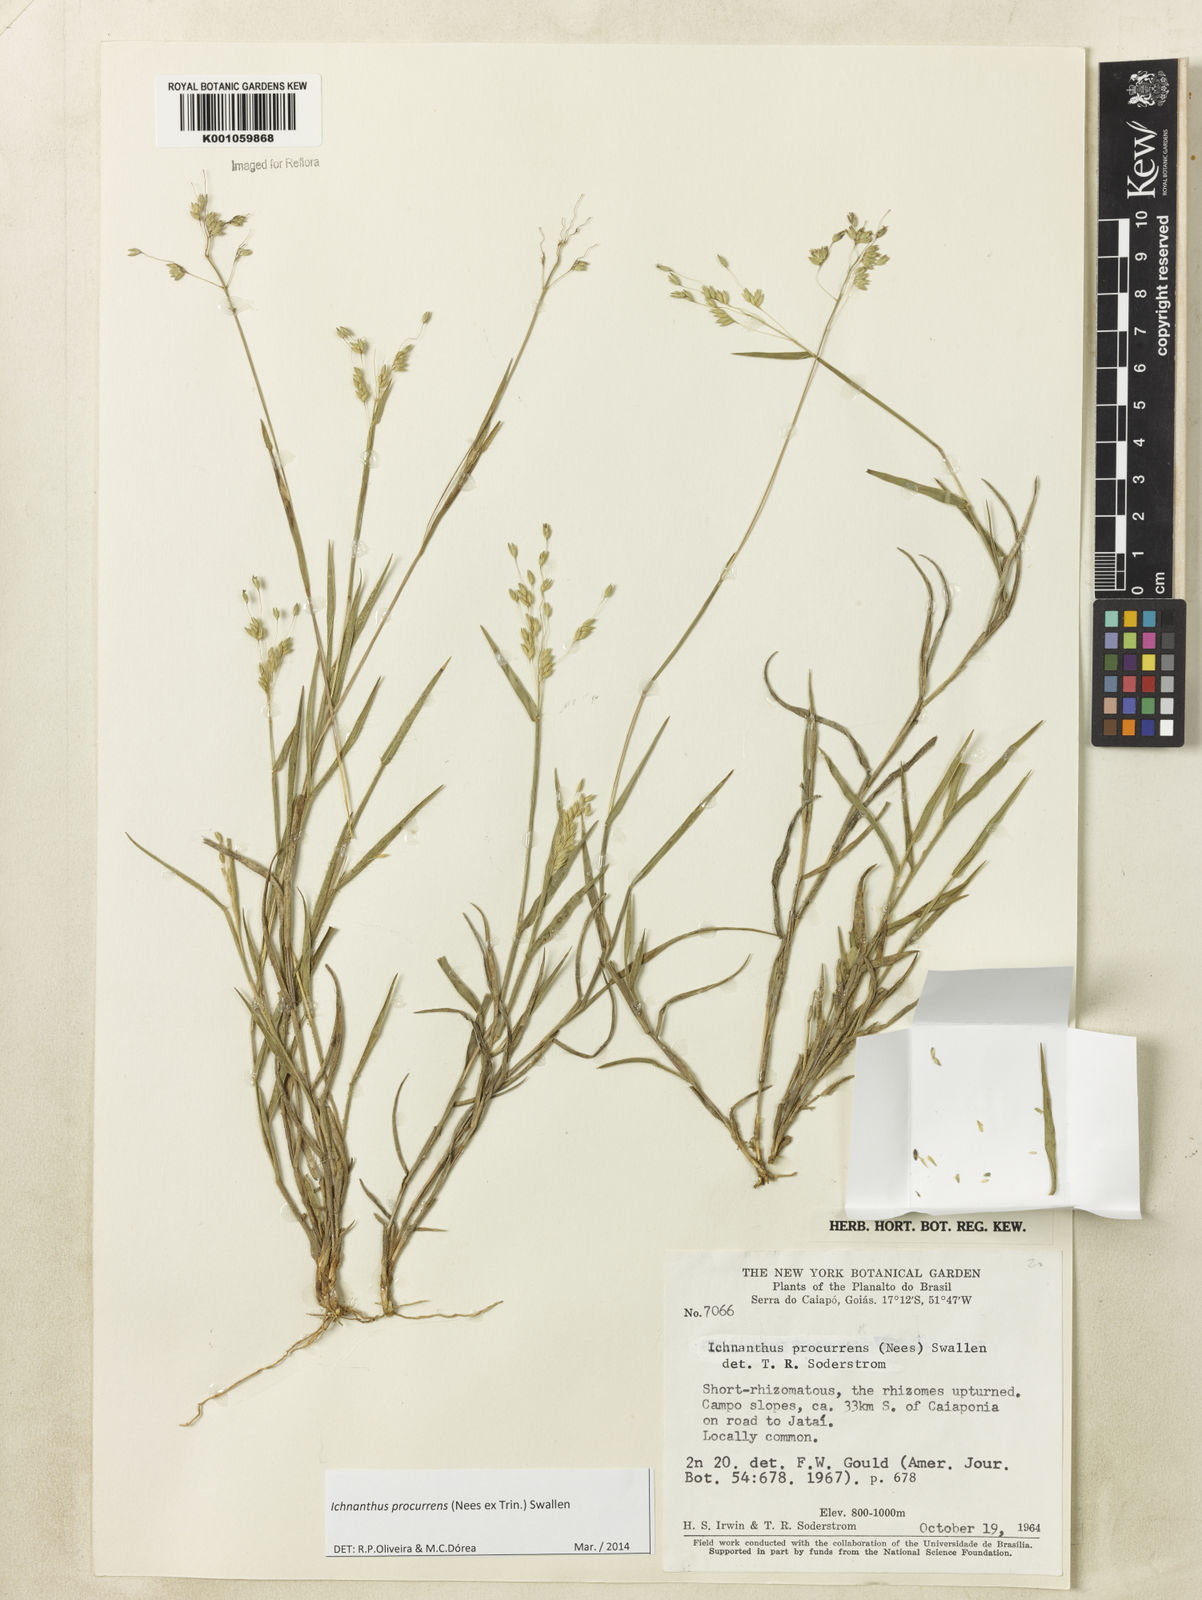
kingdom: Plantae
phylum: Tracheophyta
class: Liliopsida
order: Poales
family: Poaceae
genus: Oedochloa
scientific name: Oedochloa procurrens
